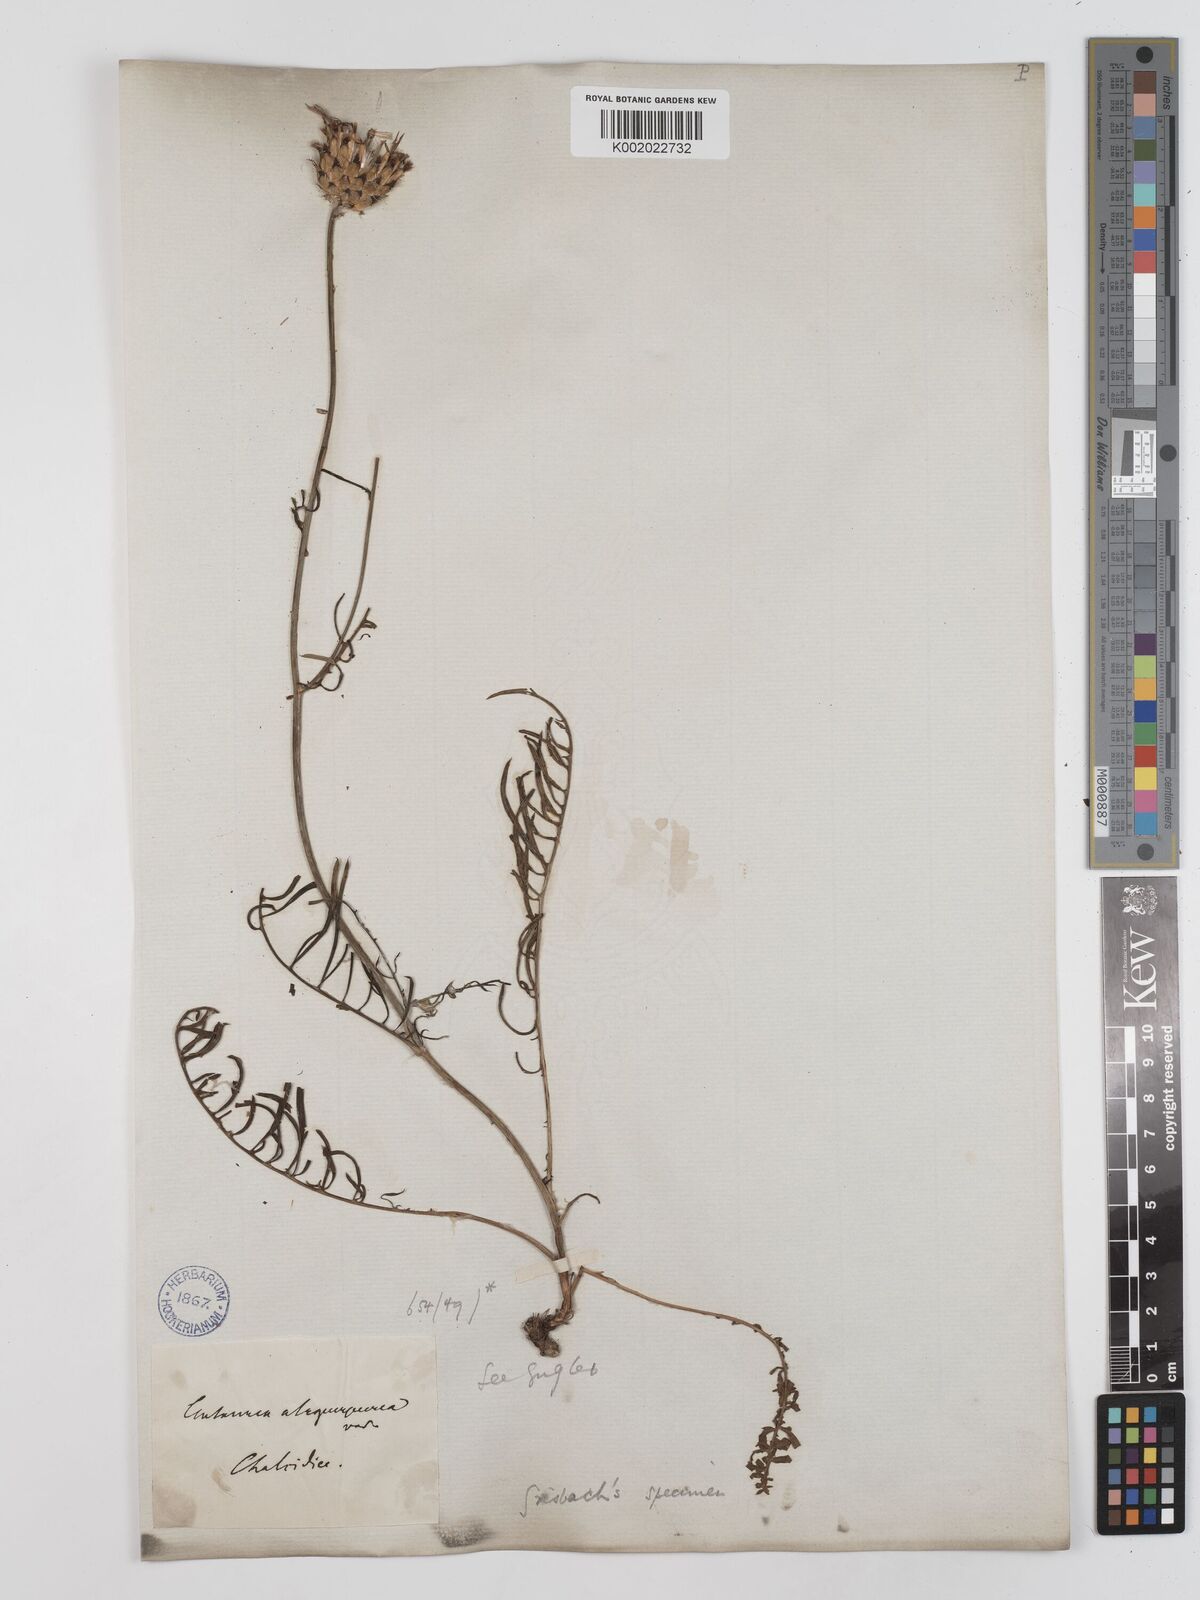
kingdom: Plantae
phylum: Tracheophyta
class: Magnoliopsida
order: Asterales
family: Asteraceae
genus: Centaurea
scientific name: Centaurea
